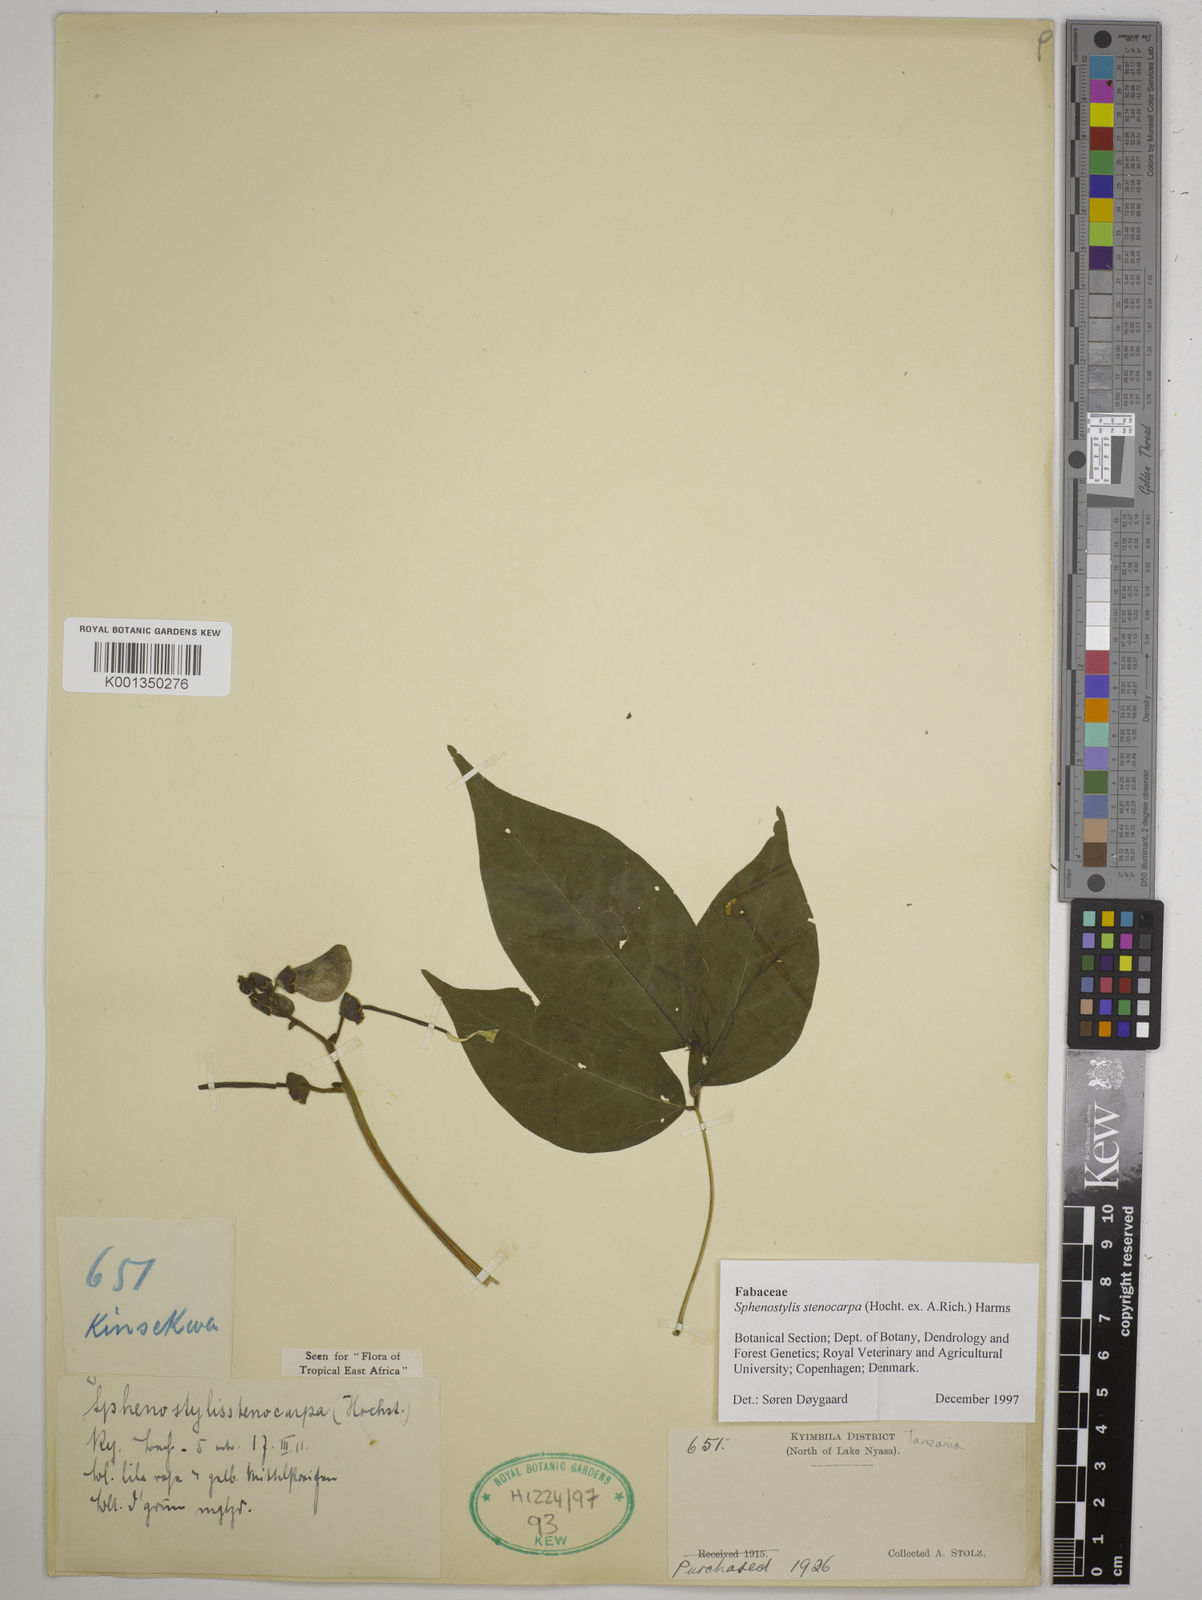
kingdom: Plantae
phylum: Tracheophyta
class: Magnoliopsida
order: Fabales
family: Fabaceae
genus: Sphenostylis
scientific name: Sphenostylis stenocarpa
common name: Yam-pea
